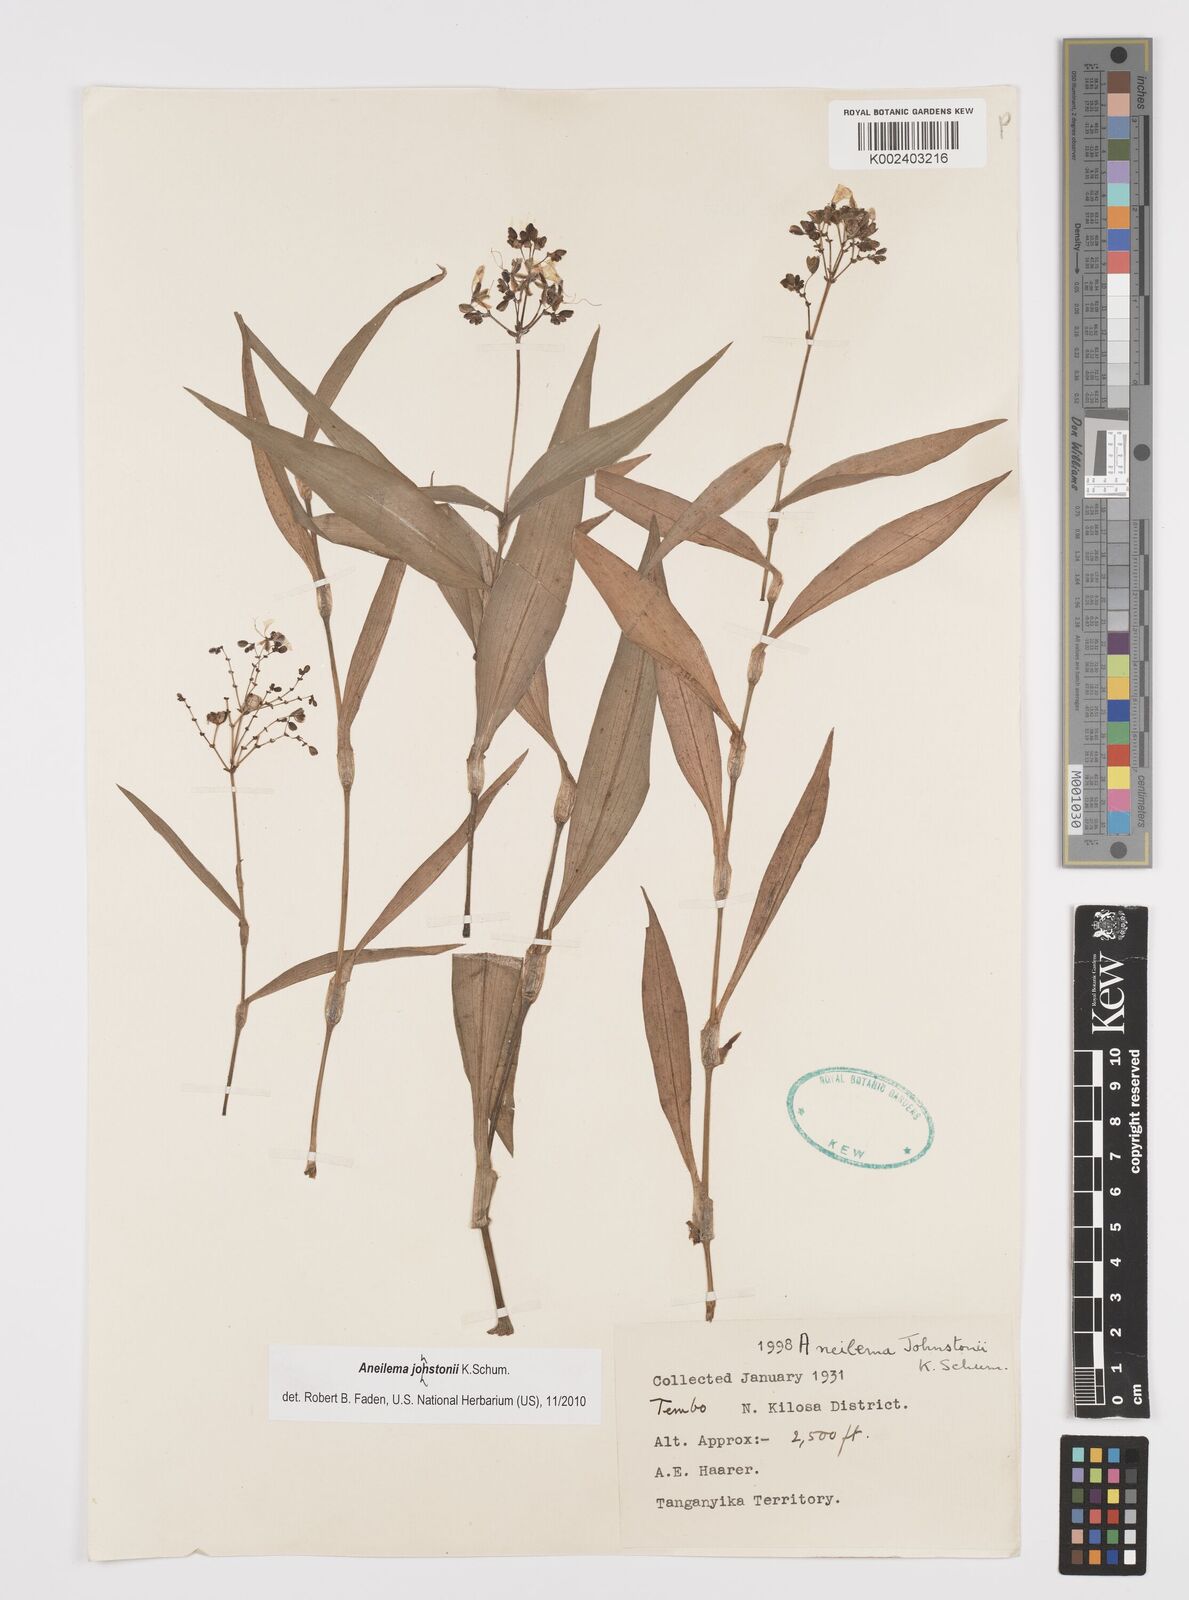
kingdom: Plantae
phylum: Tracheophyta
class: Liliopsida
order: Commelinales
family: Commelinaceae
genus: Aneilema
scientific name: Aneilema johnstonii
